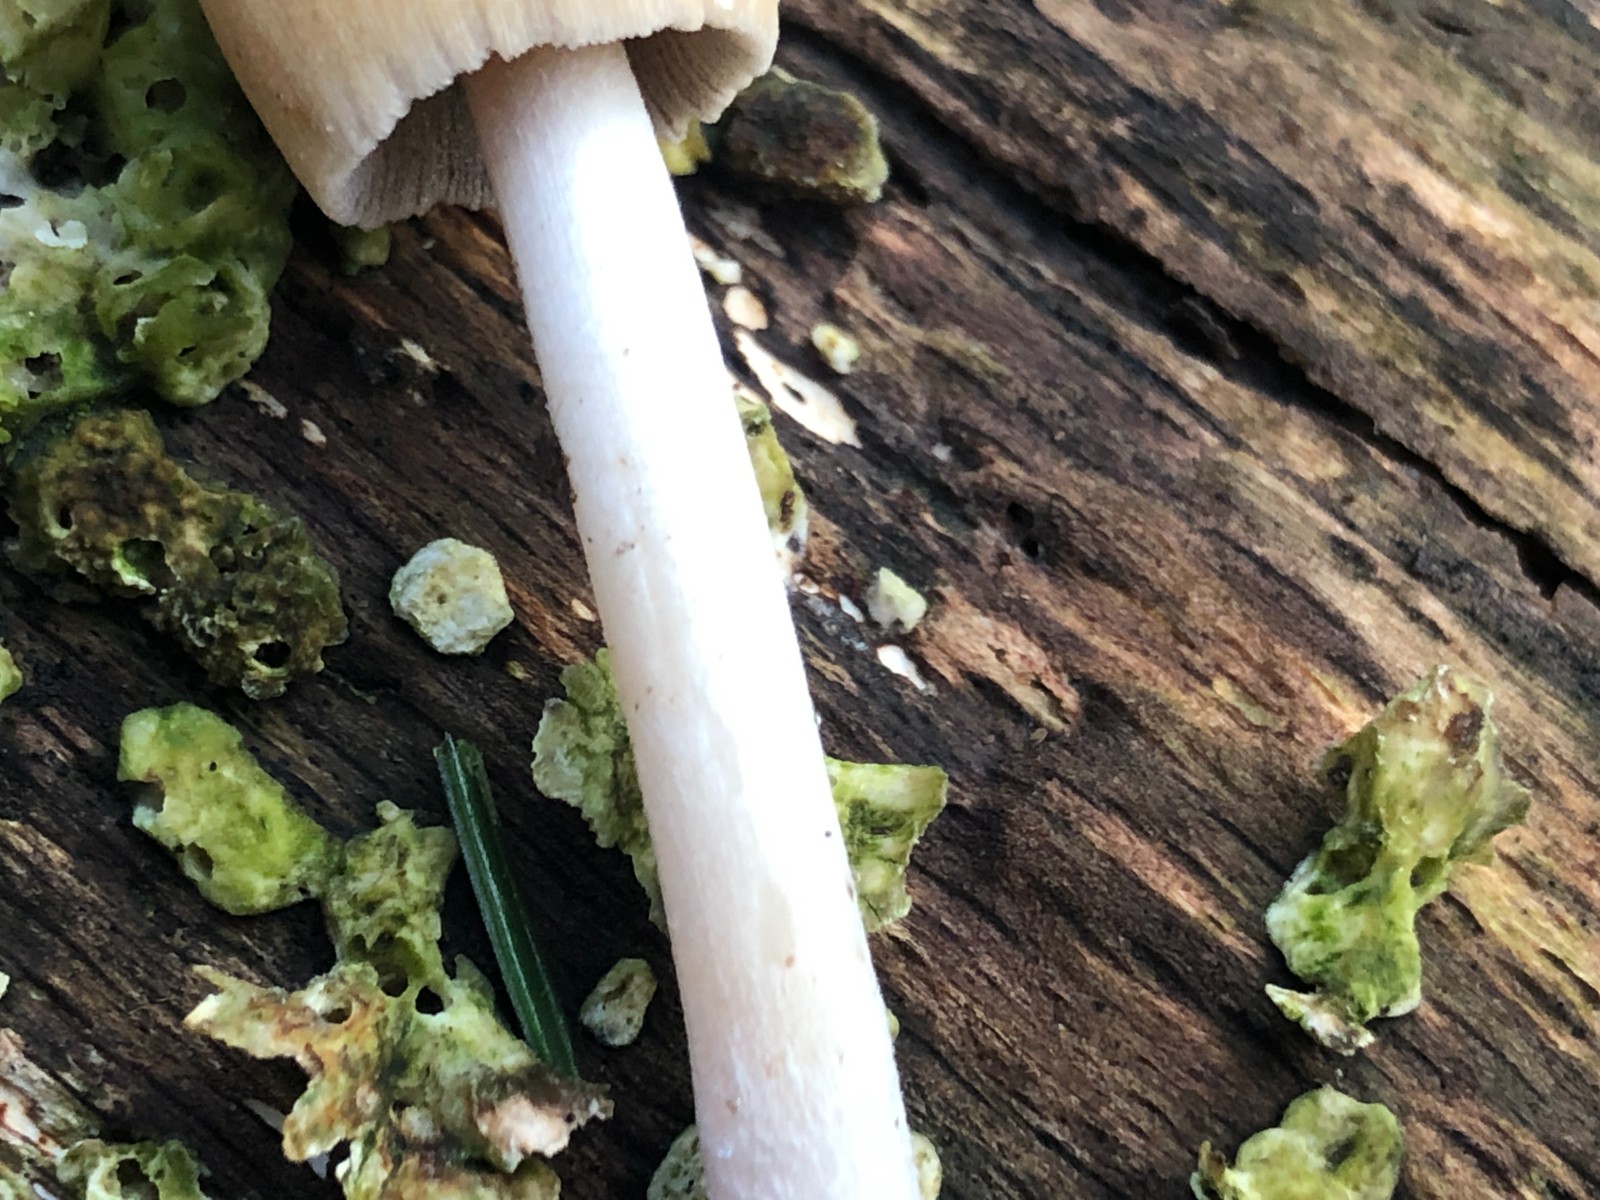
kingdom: Fungi
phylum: Basidiomycota
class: Agaricomycetes
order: Agaricales
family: Psathyrellaceae
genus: Coprinellus
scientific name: Coprinellus micaceus
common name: glimmer-blækhat
